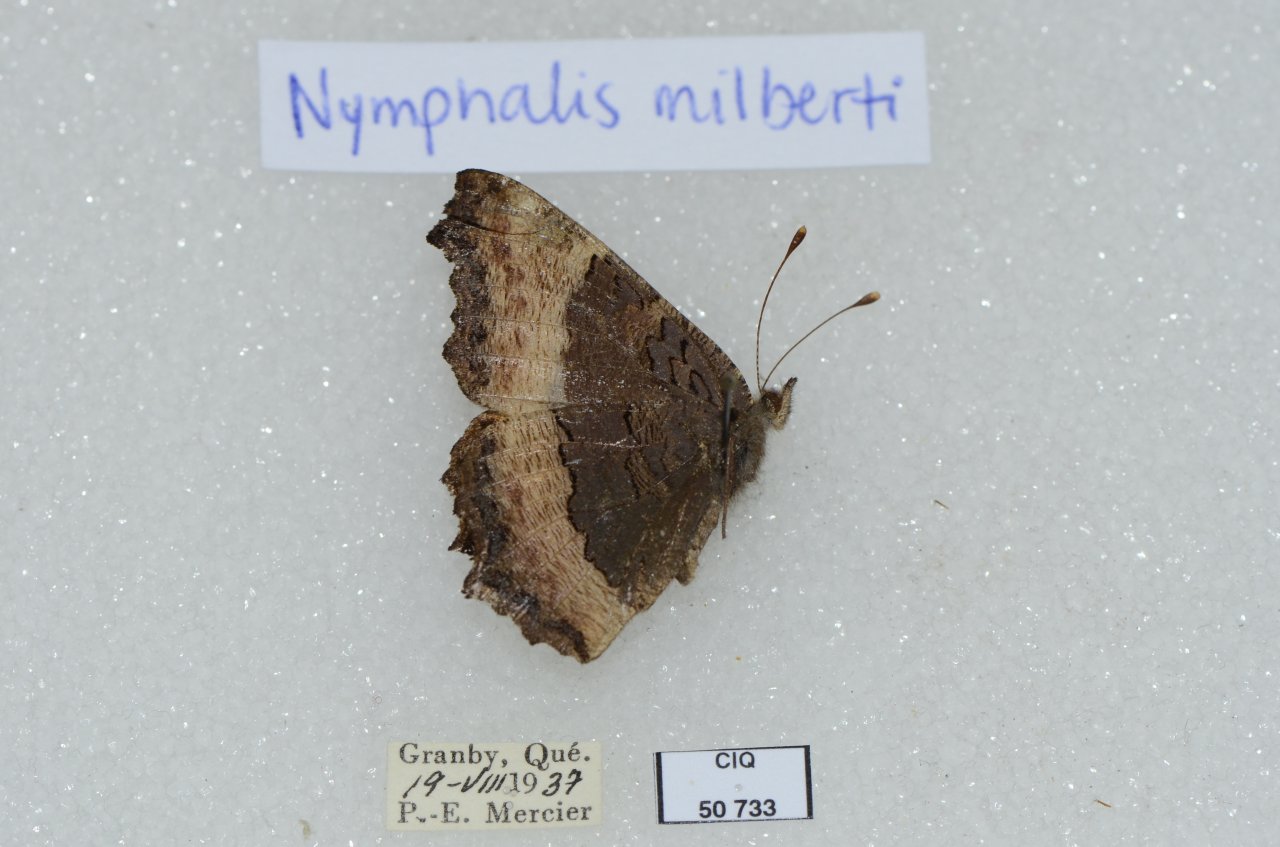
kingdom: Animalia
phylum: Arthropoda
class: Insecta
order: Lepidoptera
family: Nymphalidae
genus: Aglais
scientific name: Aglais milberti
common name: Milbert's Tortoiseshell
